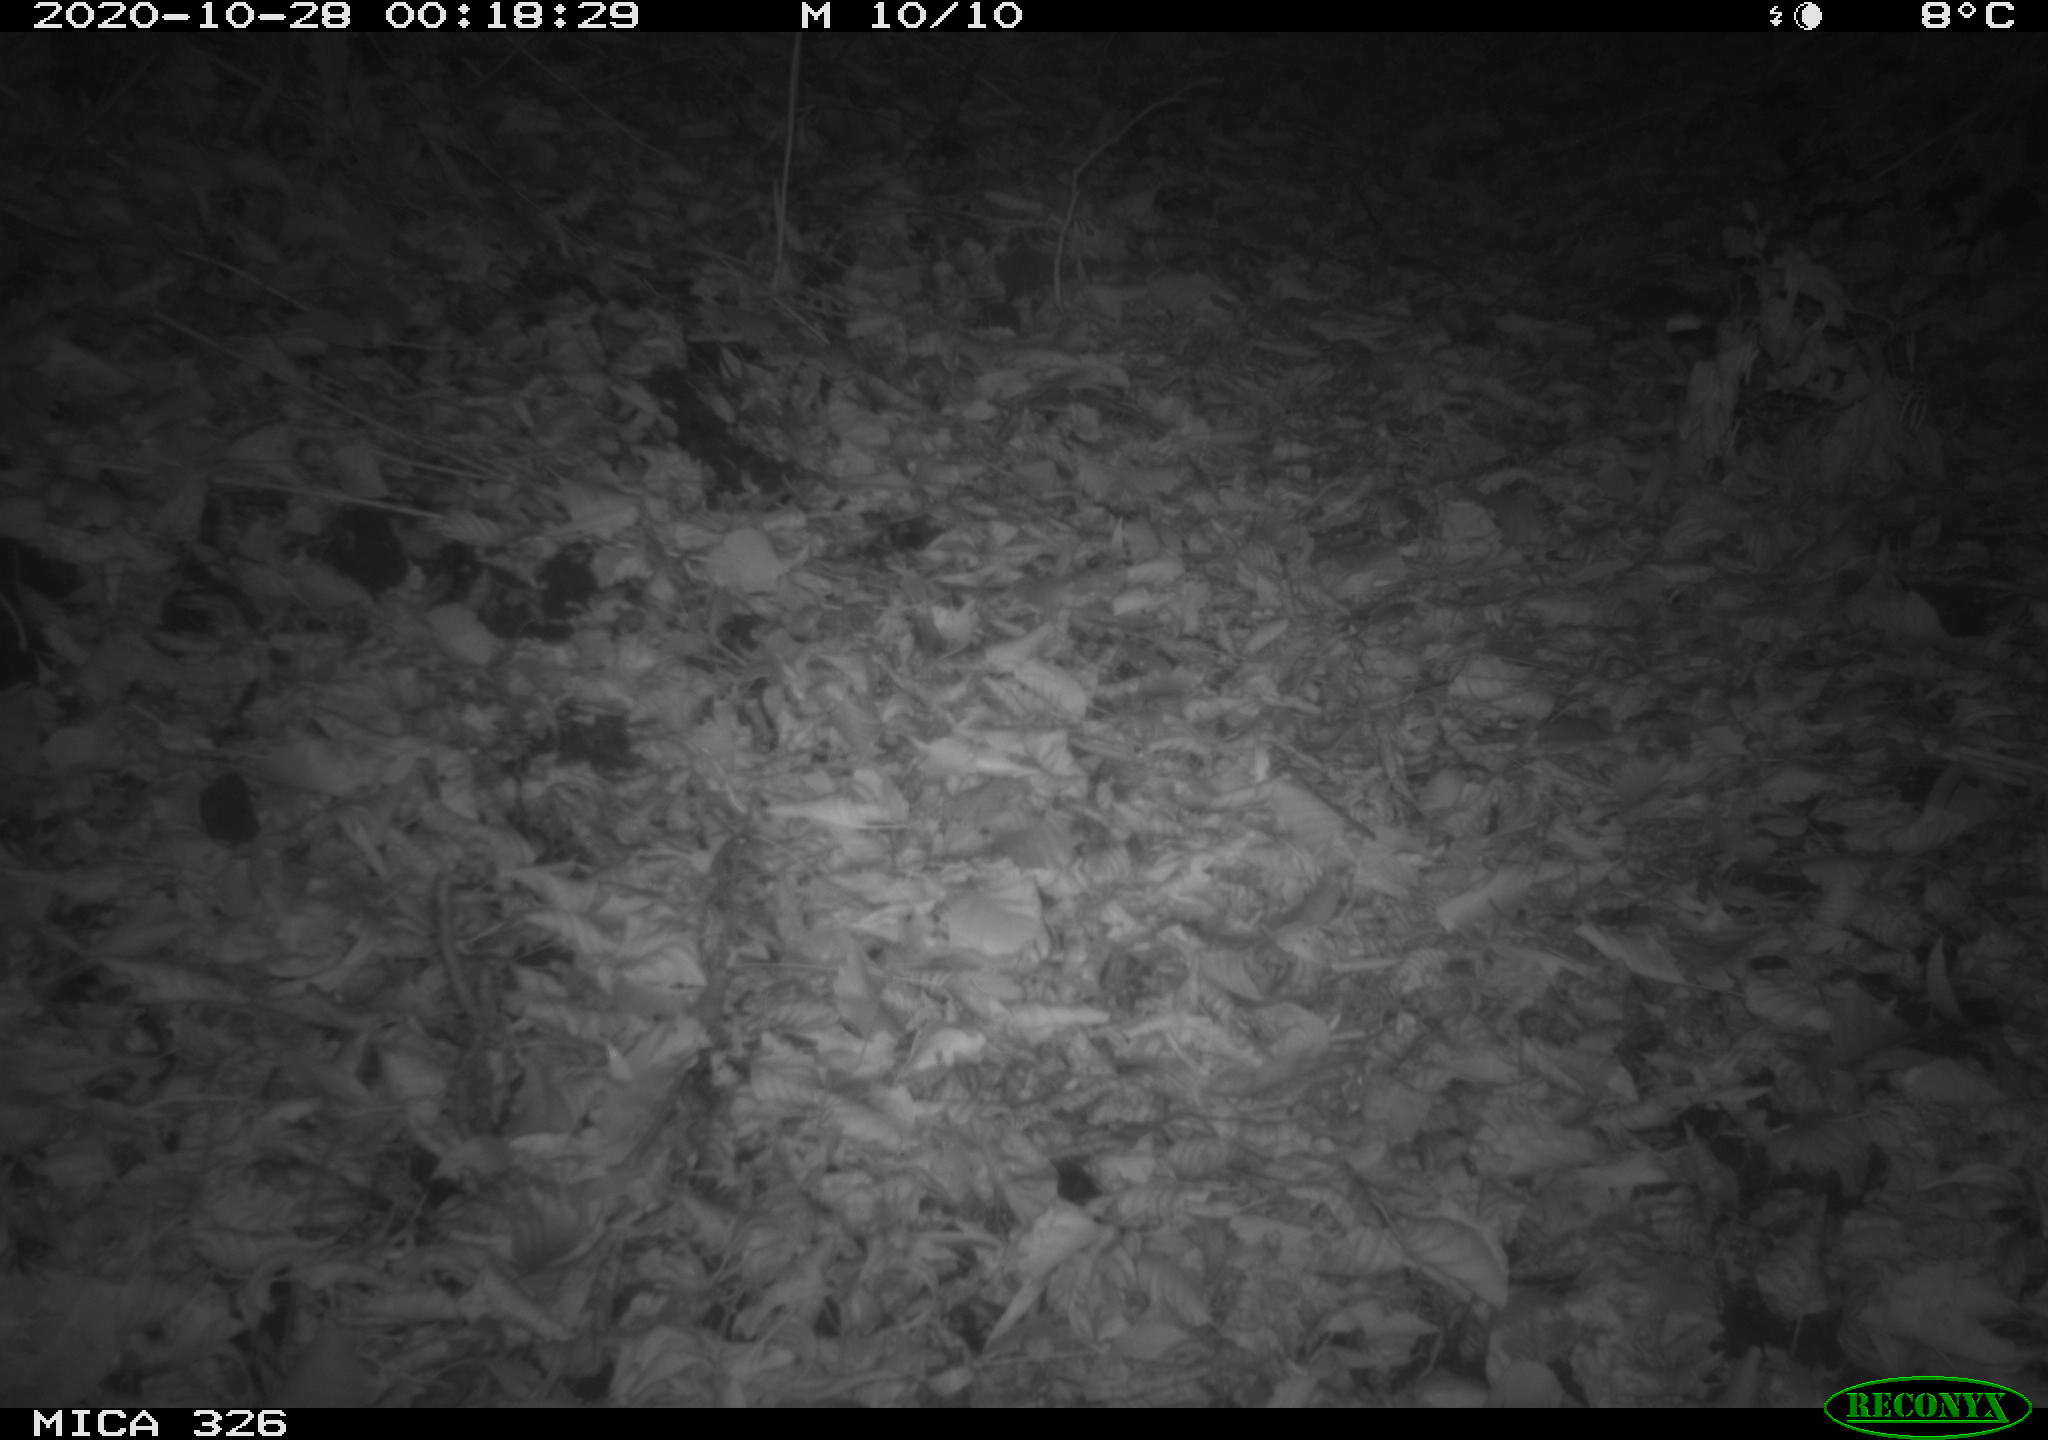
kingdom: Animalia
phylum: Chordata
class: Mammalia
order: Rodentia
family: Muridae
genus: Rattus
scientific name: Rattus norvegicus
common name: Brown rat
